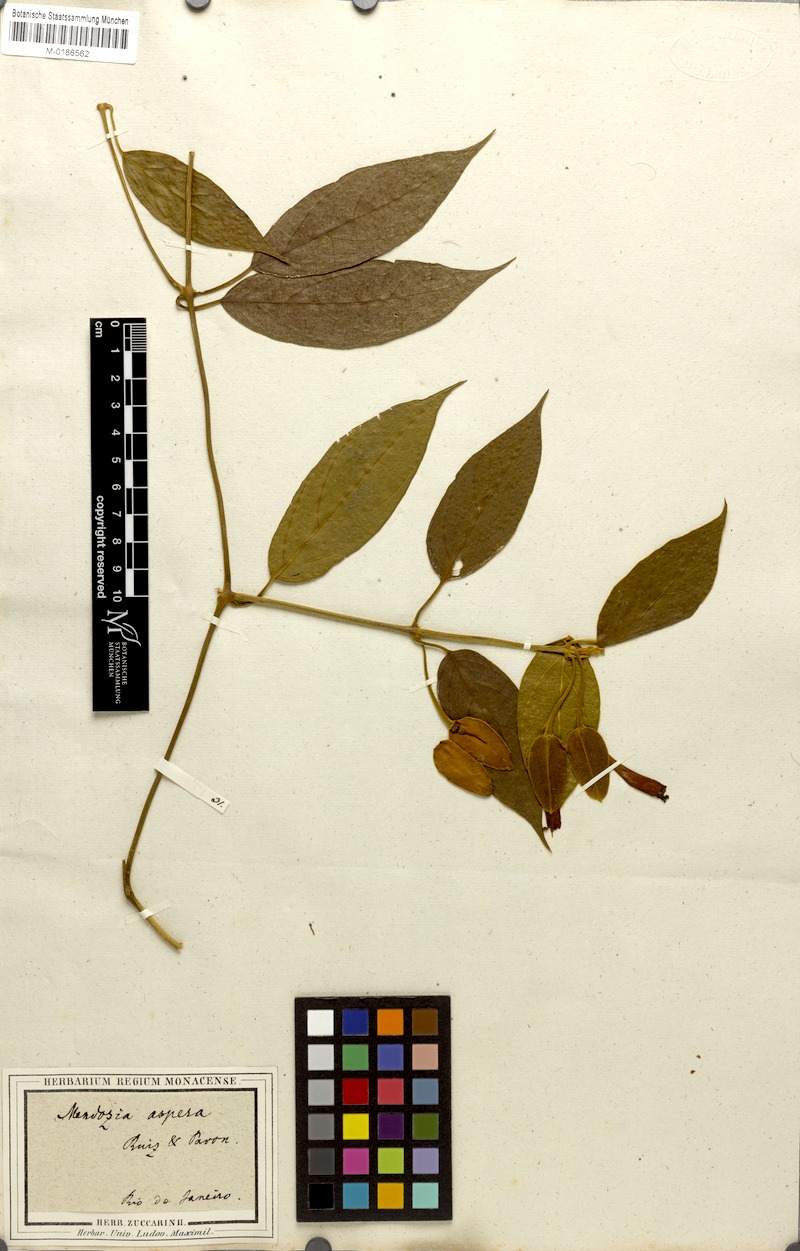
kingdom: Plantae
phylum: Tracheophyta
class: Magnoliopsida
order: Lamiales
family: Acanthaceae
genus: Mendoncia
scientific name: Mendoncia coccinea
